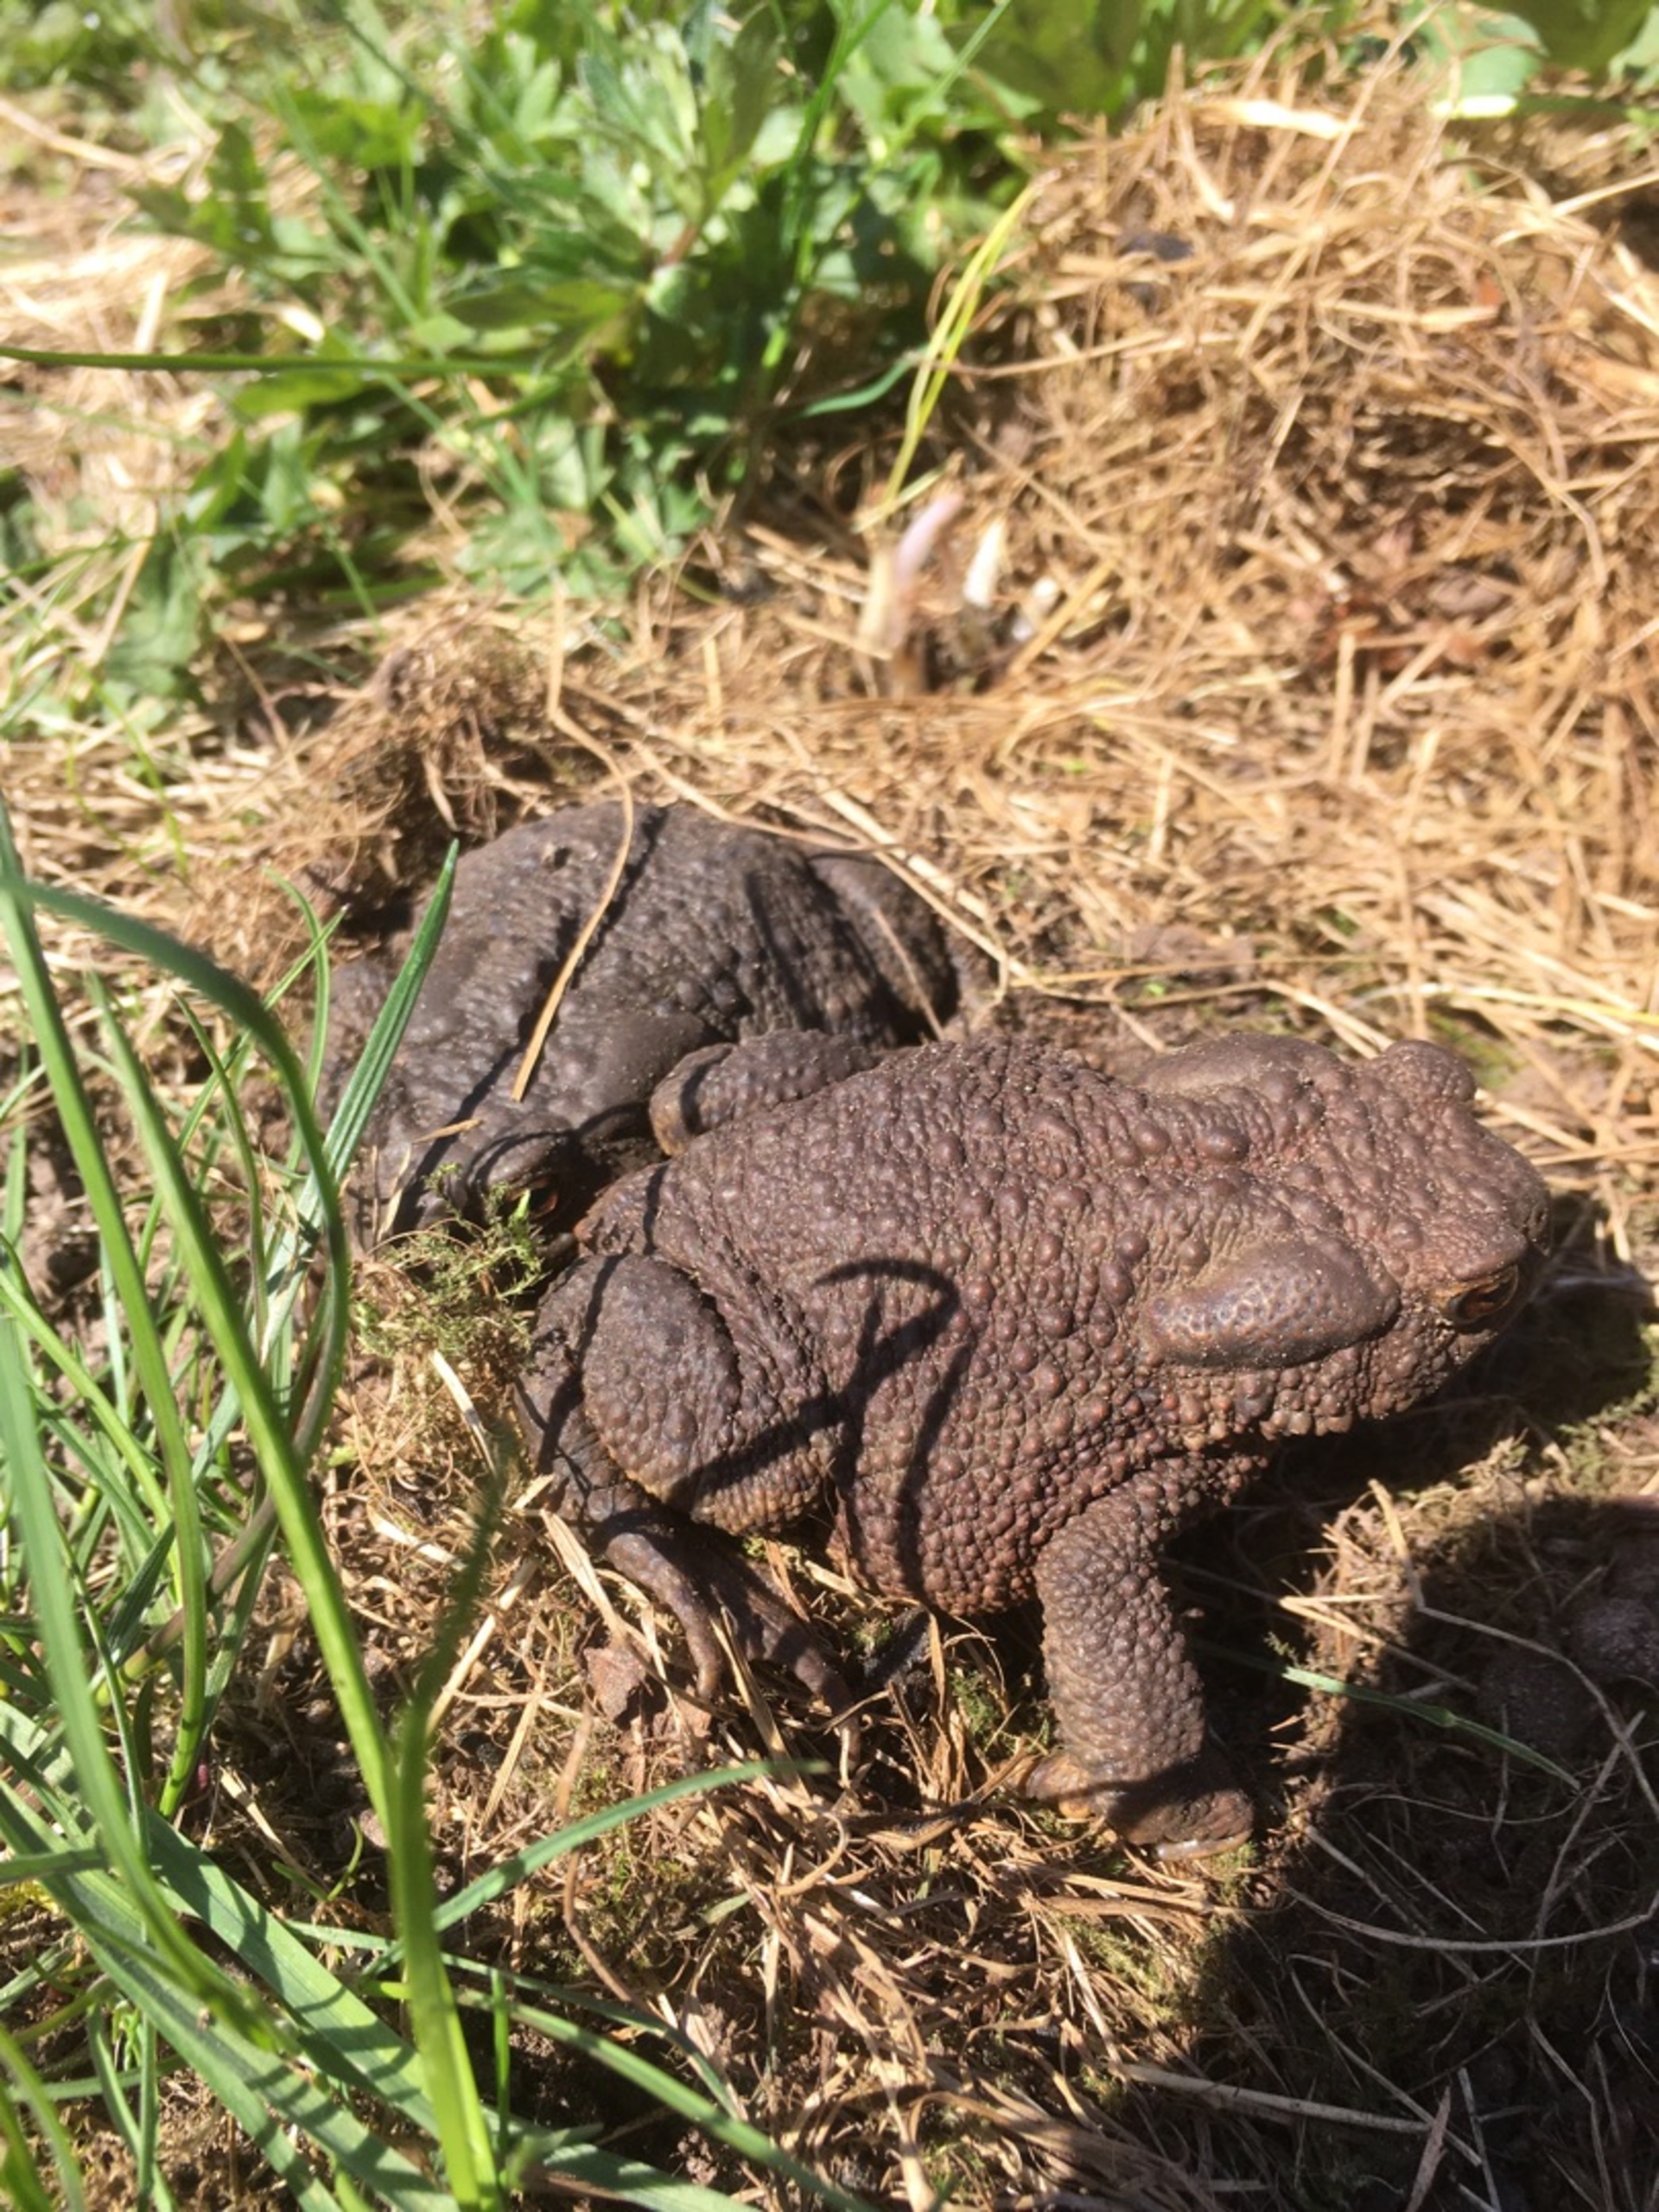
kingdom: Animalia
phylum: Chordata
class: Amphibia
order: Anura
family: Bufonidae
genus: Bufo
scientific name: Bufo bufo
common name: Skrubtudse
